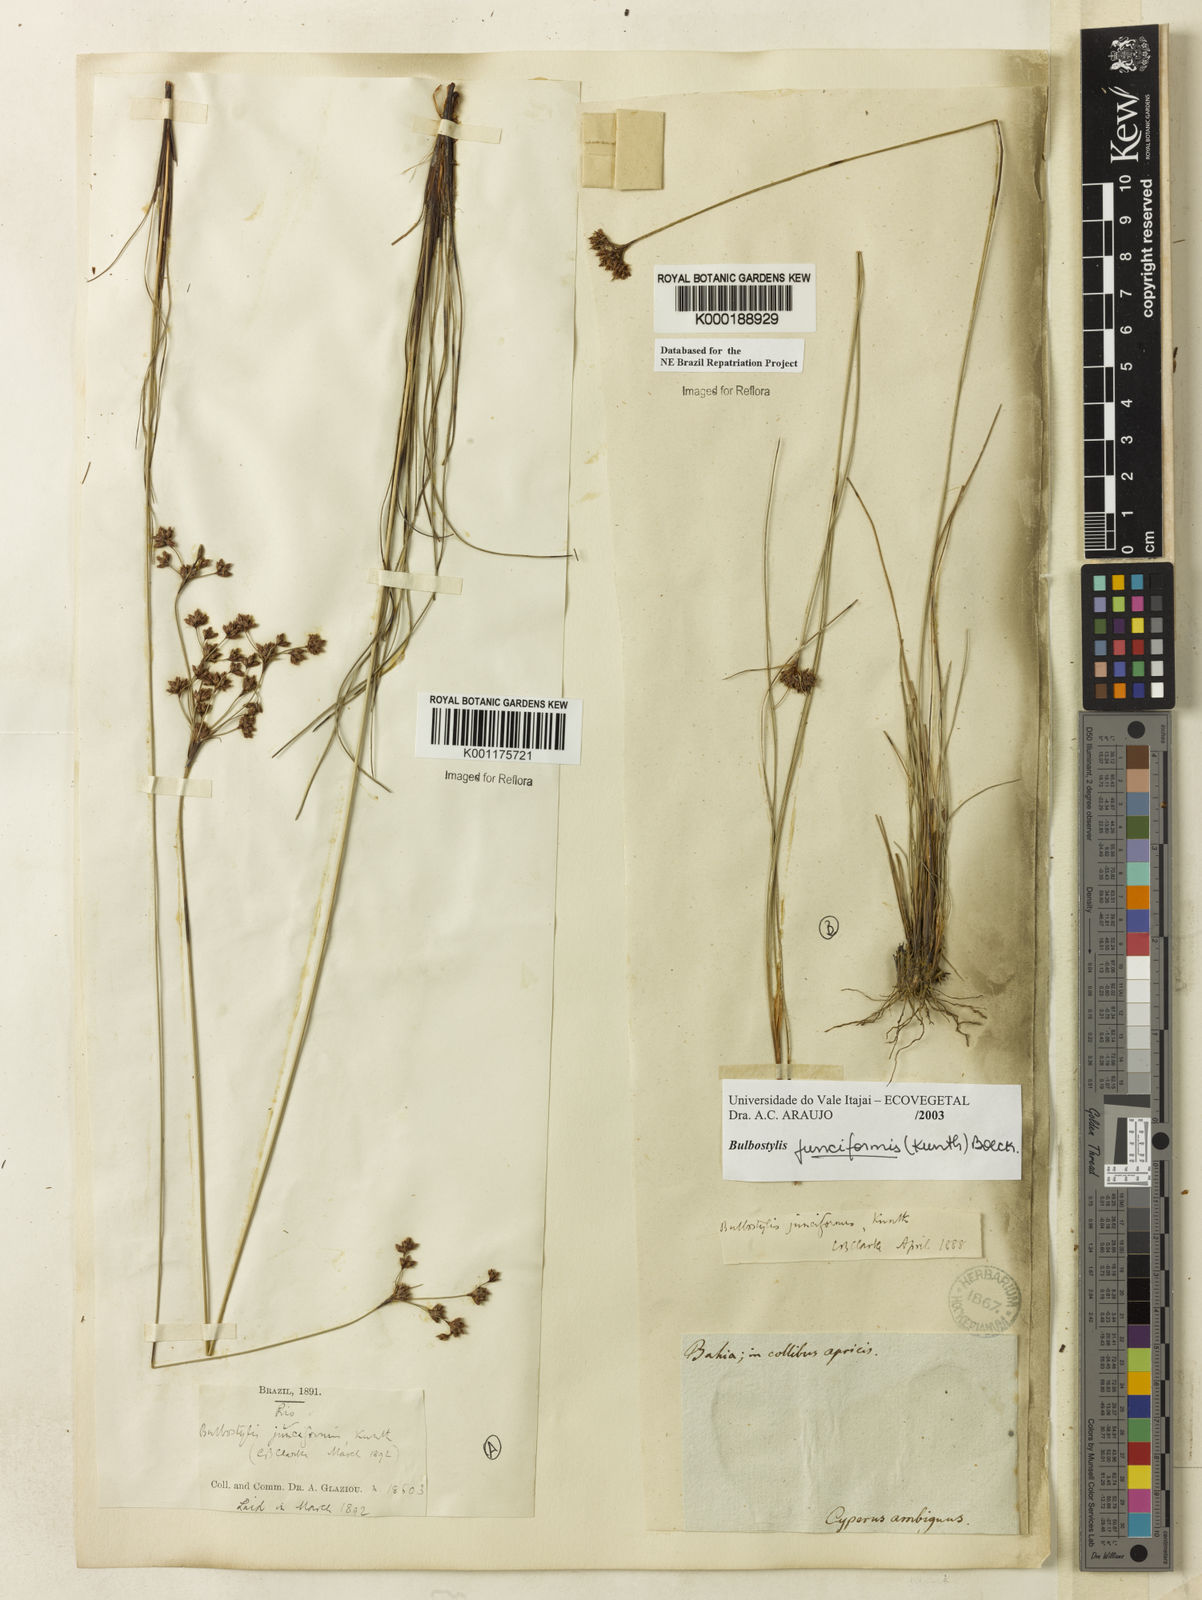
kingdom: Plantae
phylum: Tracheophyta
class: Liliopsida
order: Poales
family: Cyperaceae
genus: Bulbostylis
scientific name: Bulbostylis
